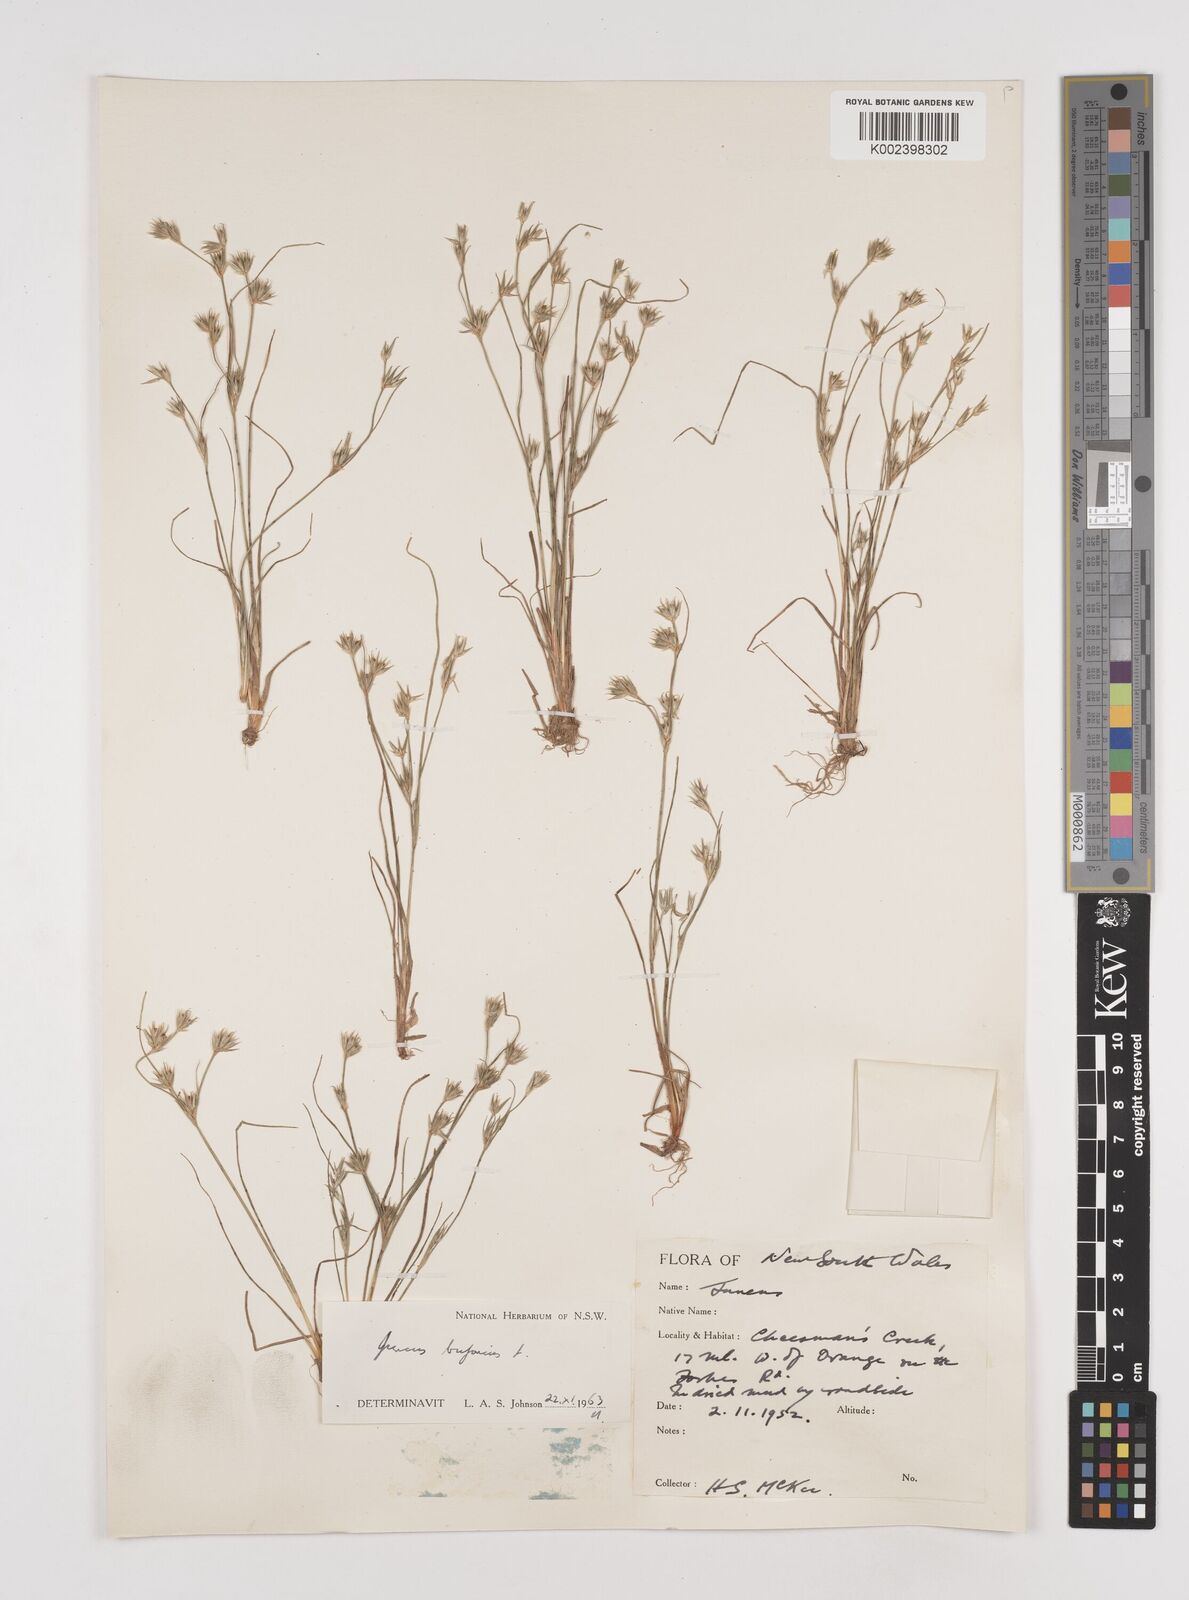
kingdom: Plantae
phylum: Tracheophyta
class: Liliopsida
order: Poales
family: Juncaceae
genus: Juncus
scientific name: Juncus bufonius
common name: Toad rush
